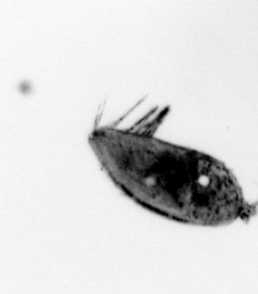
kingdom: Animalia
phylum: Arthropoda
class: Maxillopoda
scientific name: Maxillopoda
